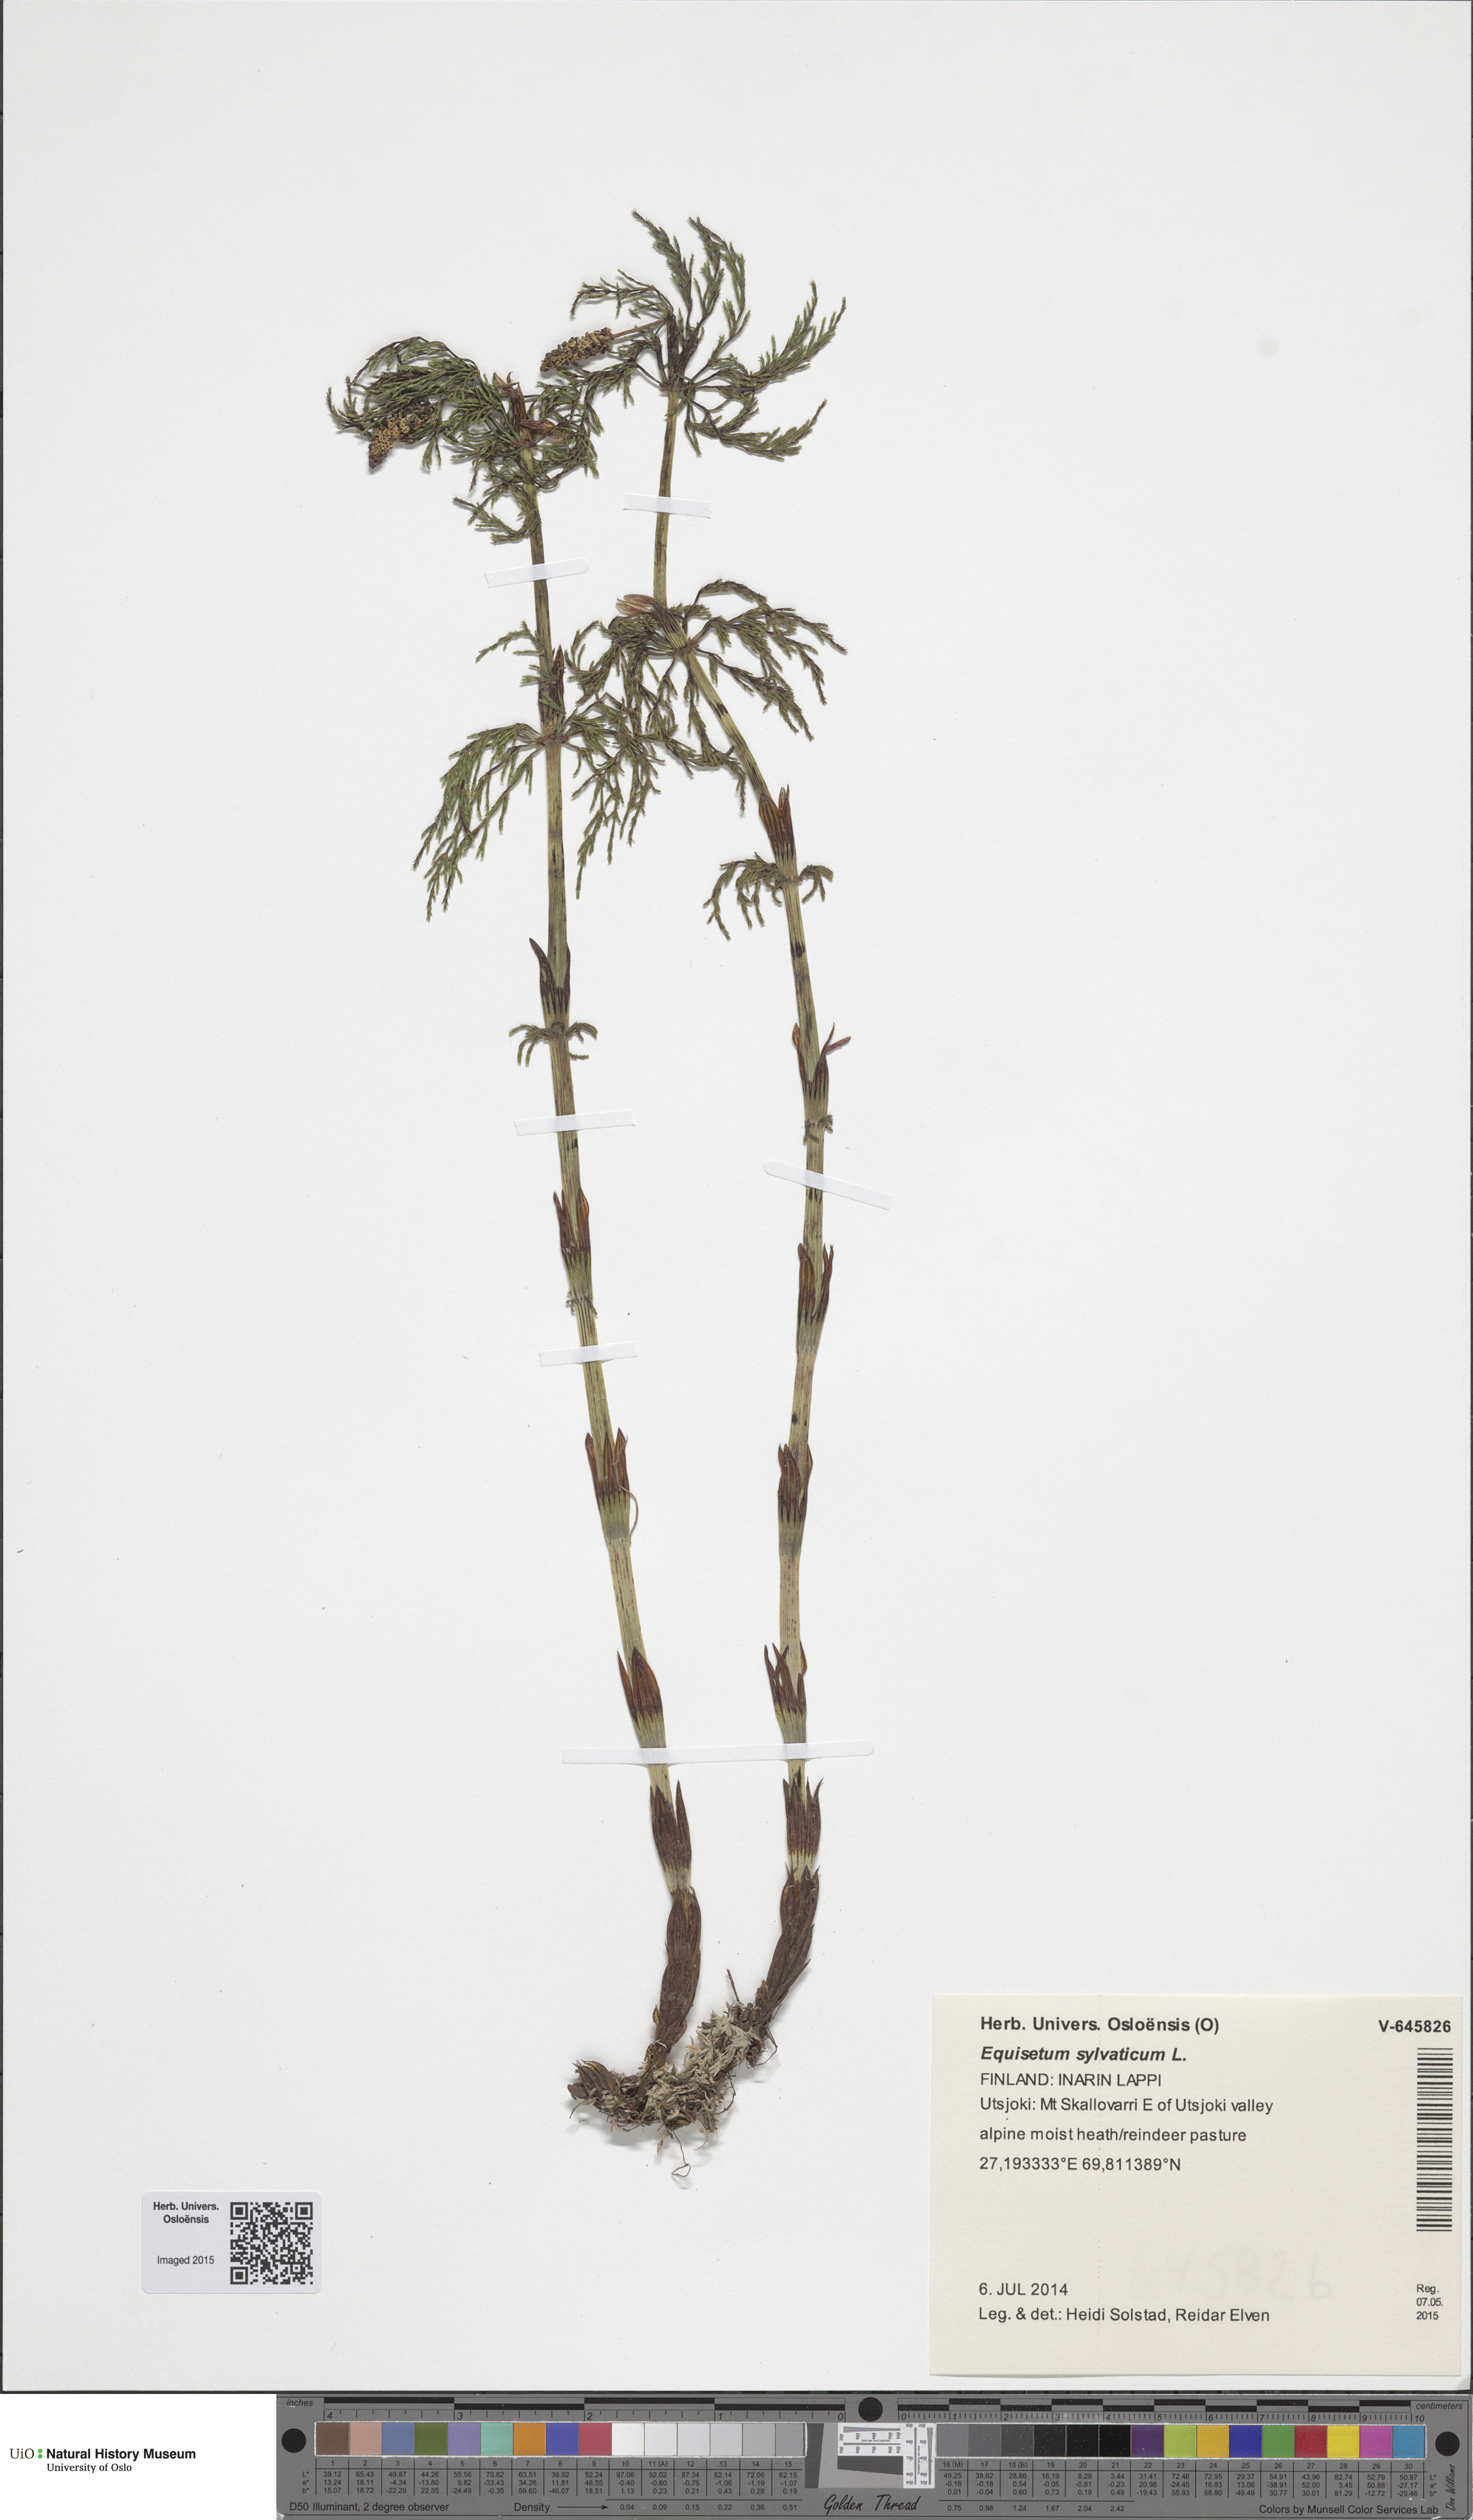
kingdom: Plantae
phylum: Tracheophyta
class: Polypodiopsida
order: Equisetales
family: Equisetaceae
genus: Equisetum
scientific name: Equisetum sylvaticum
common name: Wood horsetail
